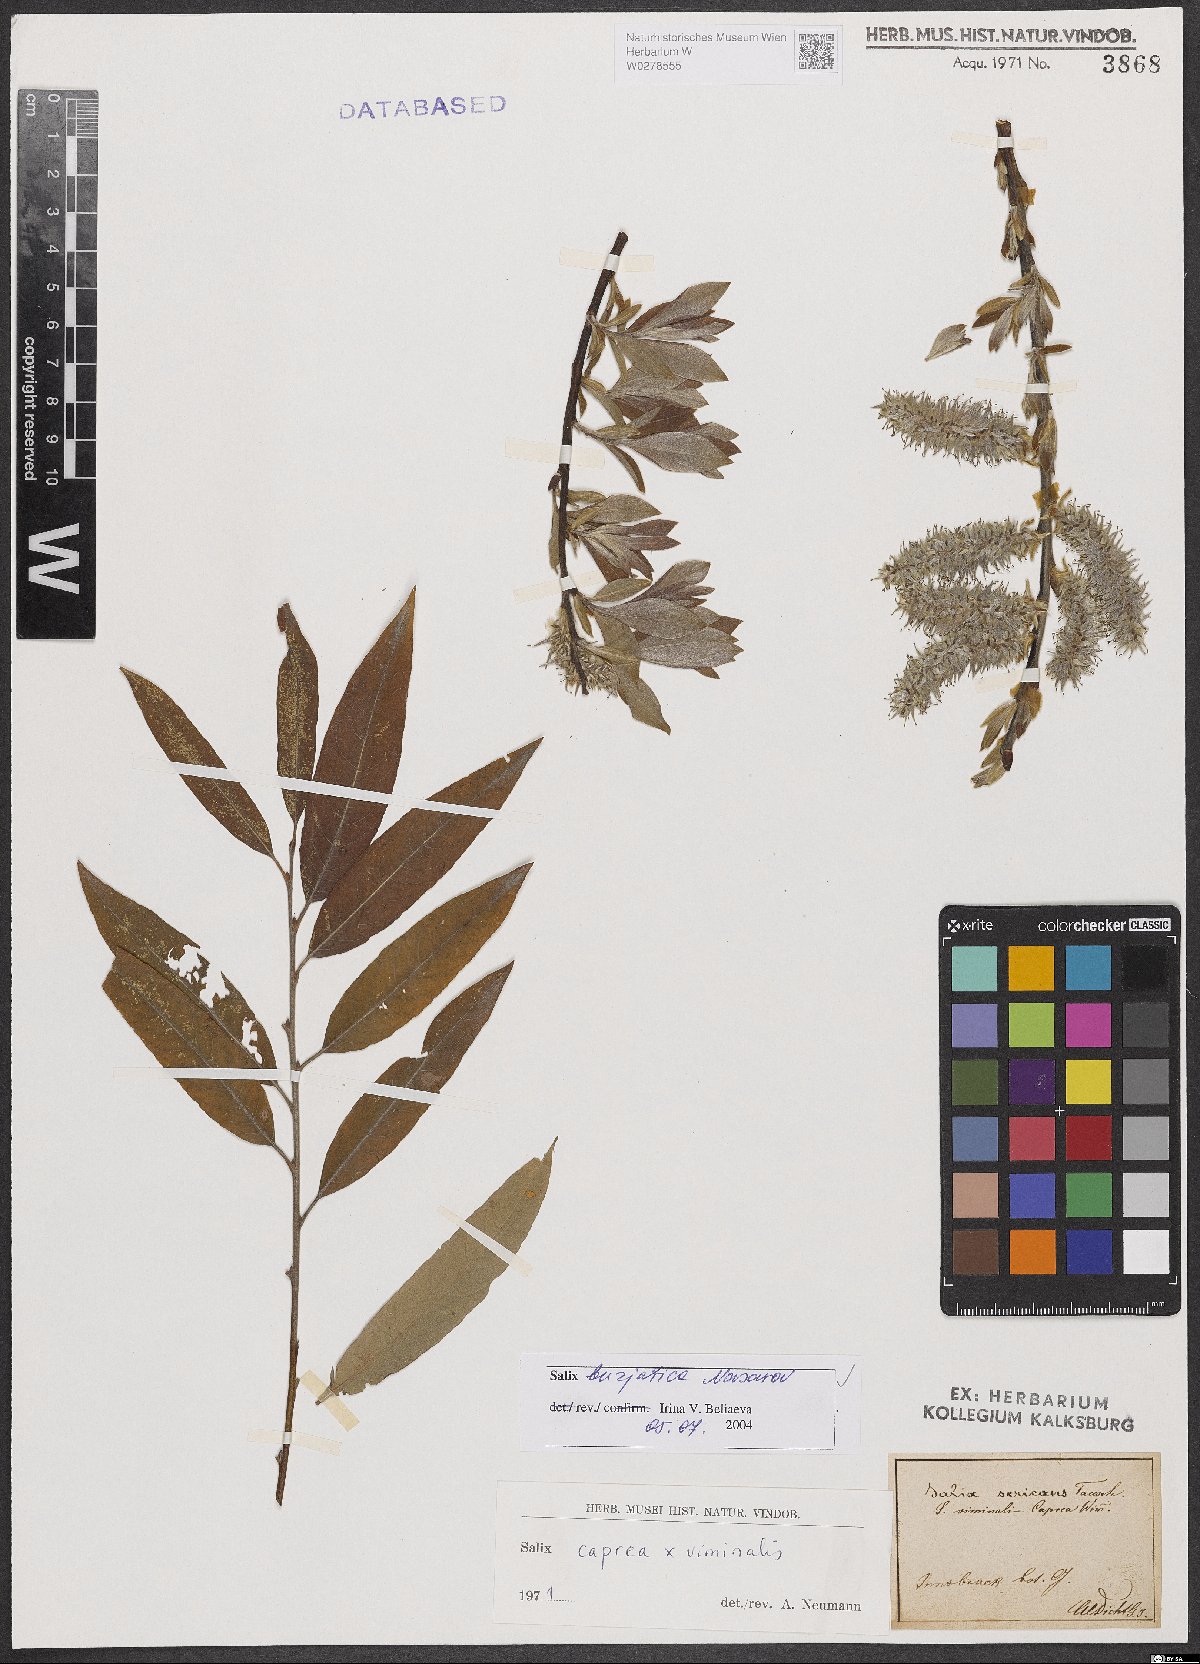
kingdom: Plantae
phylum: Tracheophyta
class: Magnoliopsida
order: Malpighiales
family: Salicaceae
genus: Salix
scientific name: Salix gmelinii
